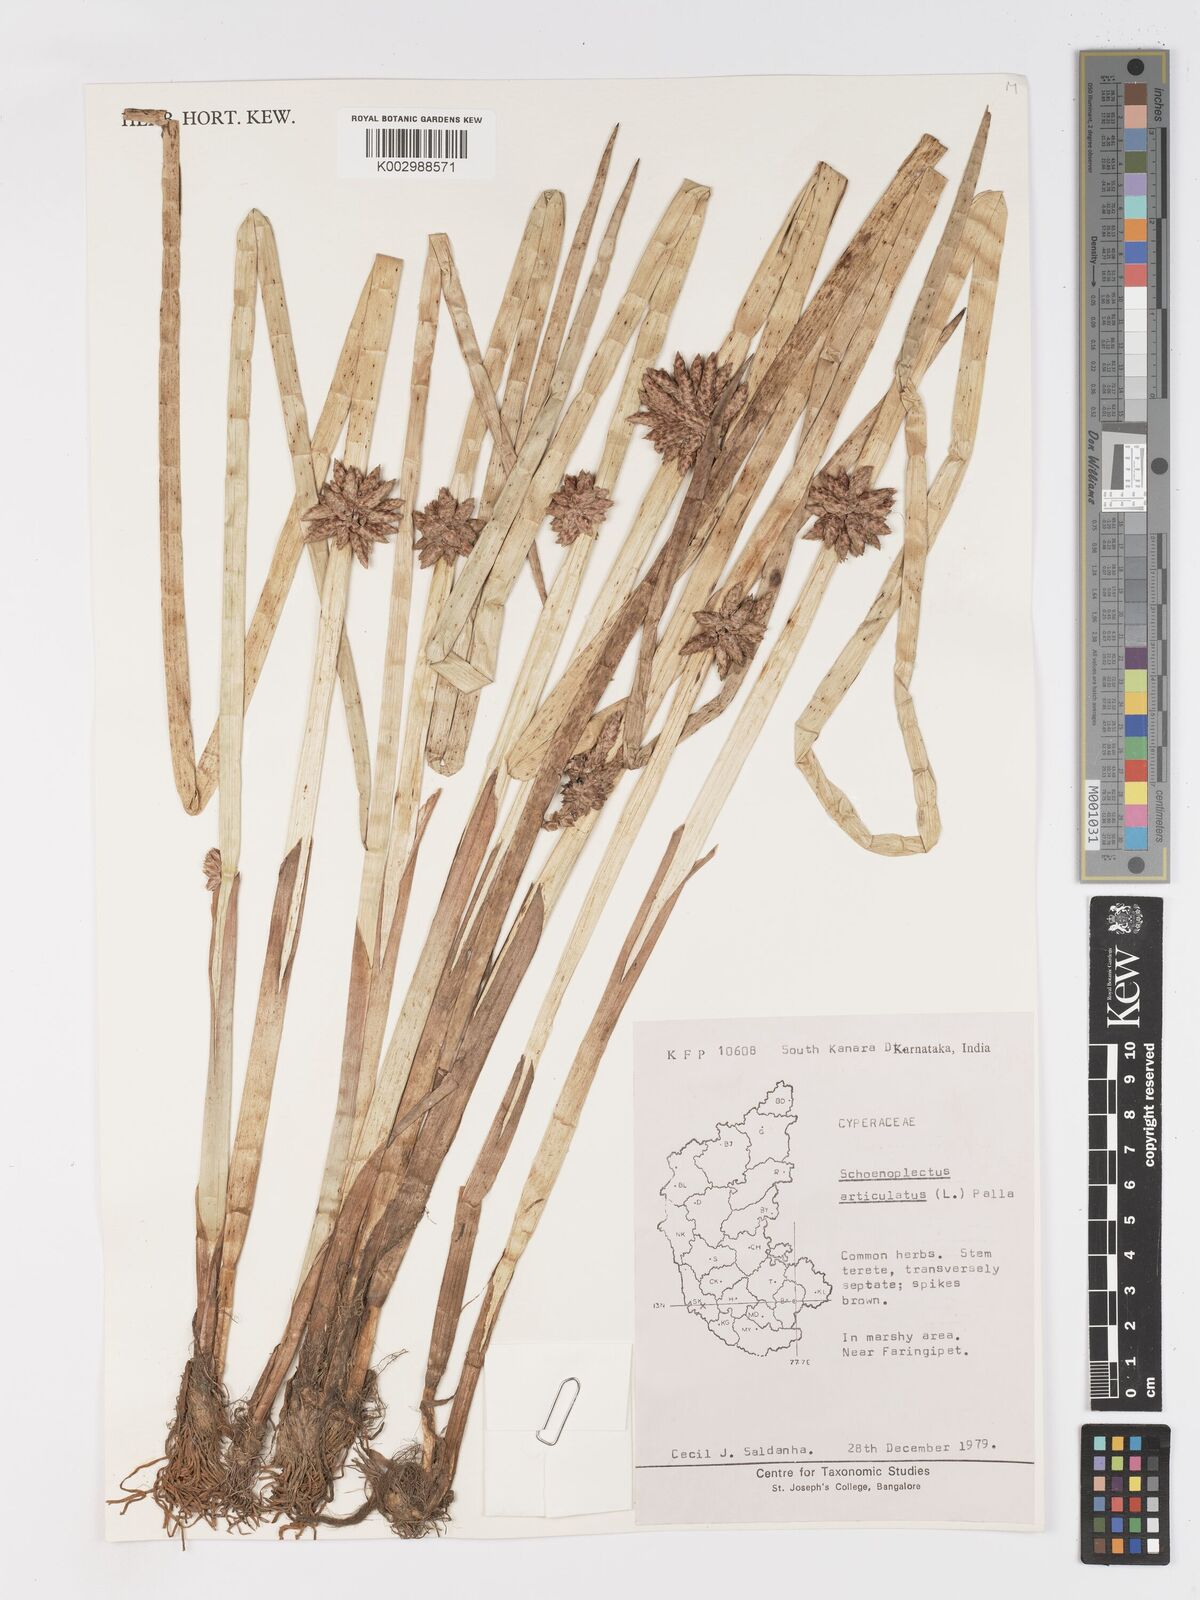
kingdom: Plantae
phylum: Tracheophyta
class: Liliopsida
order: Poales
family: Cyperaceae
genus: Schoenoplectiella
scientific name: Schoenoplectiella articulata
